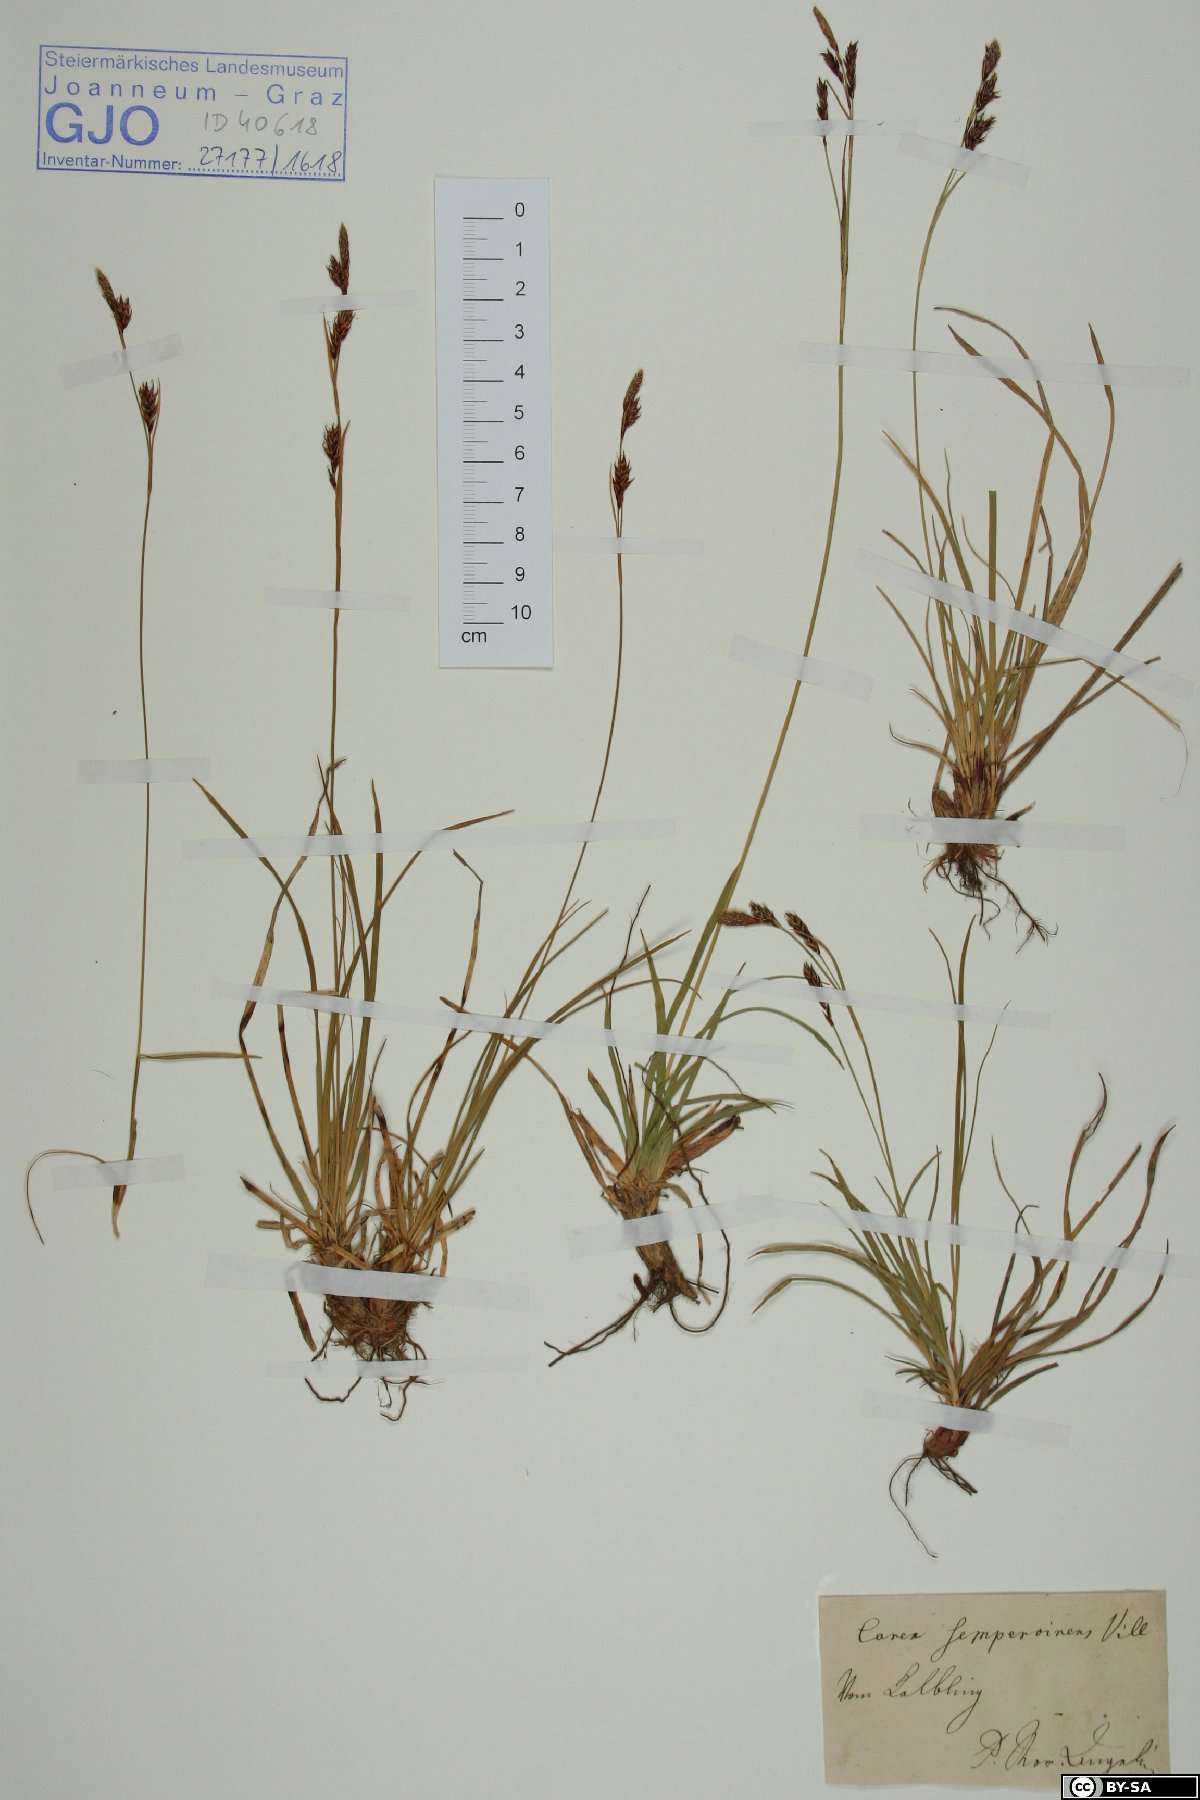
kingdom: Plantae
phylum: Tracheophyta
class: Liliopsida
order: Poales
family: Cyperaceae
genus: Carex
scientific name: Carex sempervirens
